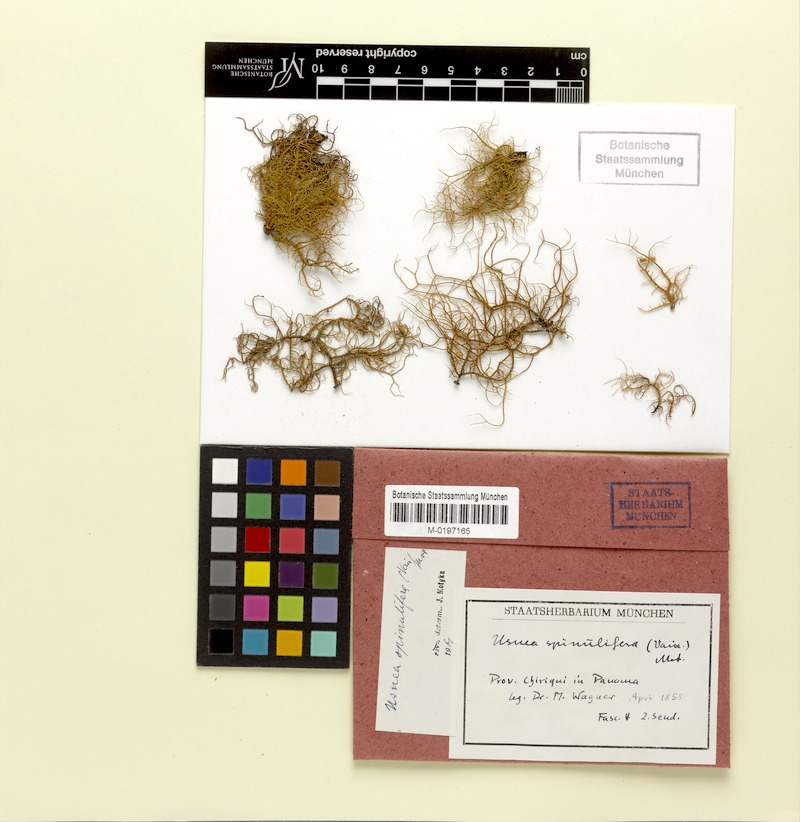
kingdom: Fungi
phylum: Ascomycota
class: Lecanoromycetes
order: Lecanorales
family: Parmeliaceae
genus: Usnea
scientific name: Usnea spinulifera
